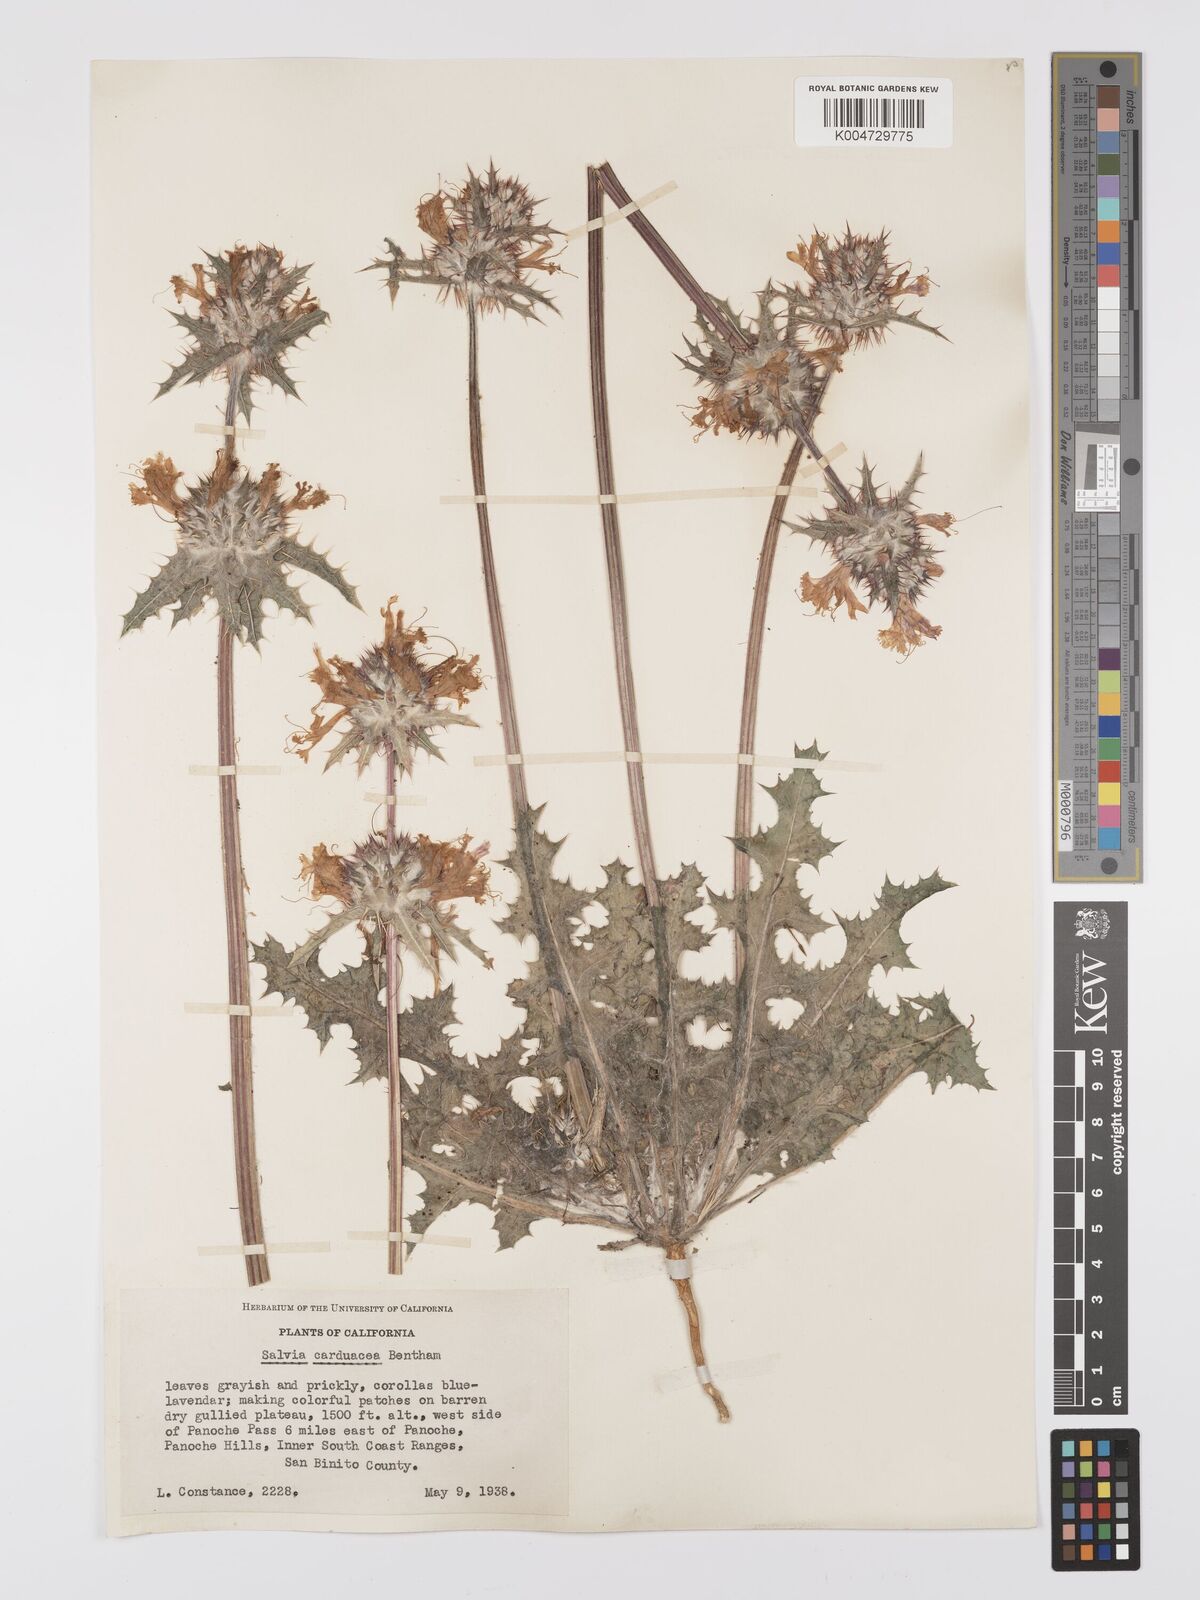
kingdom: Plantae
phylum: Tracheophyta
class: Magnoliopsida
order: Lamiales
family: Lamiaceae
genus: Salvia
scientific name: Salvia carduacea
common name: Thistle sage
